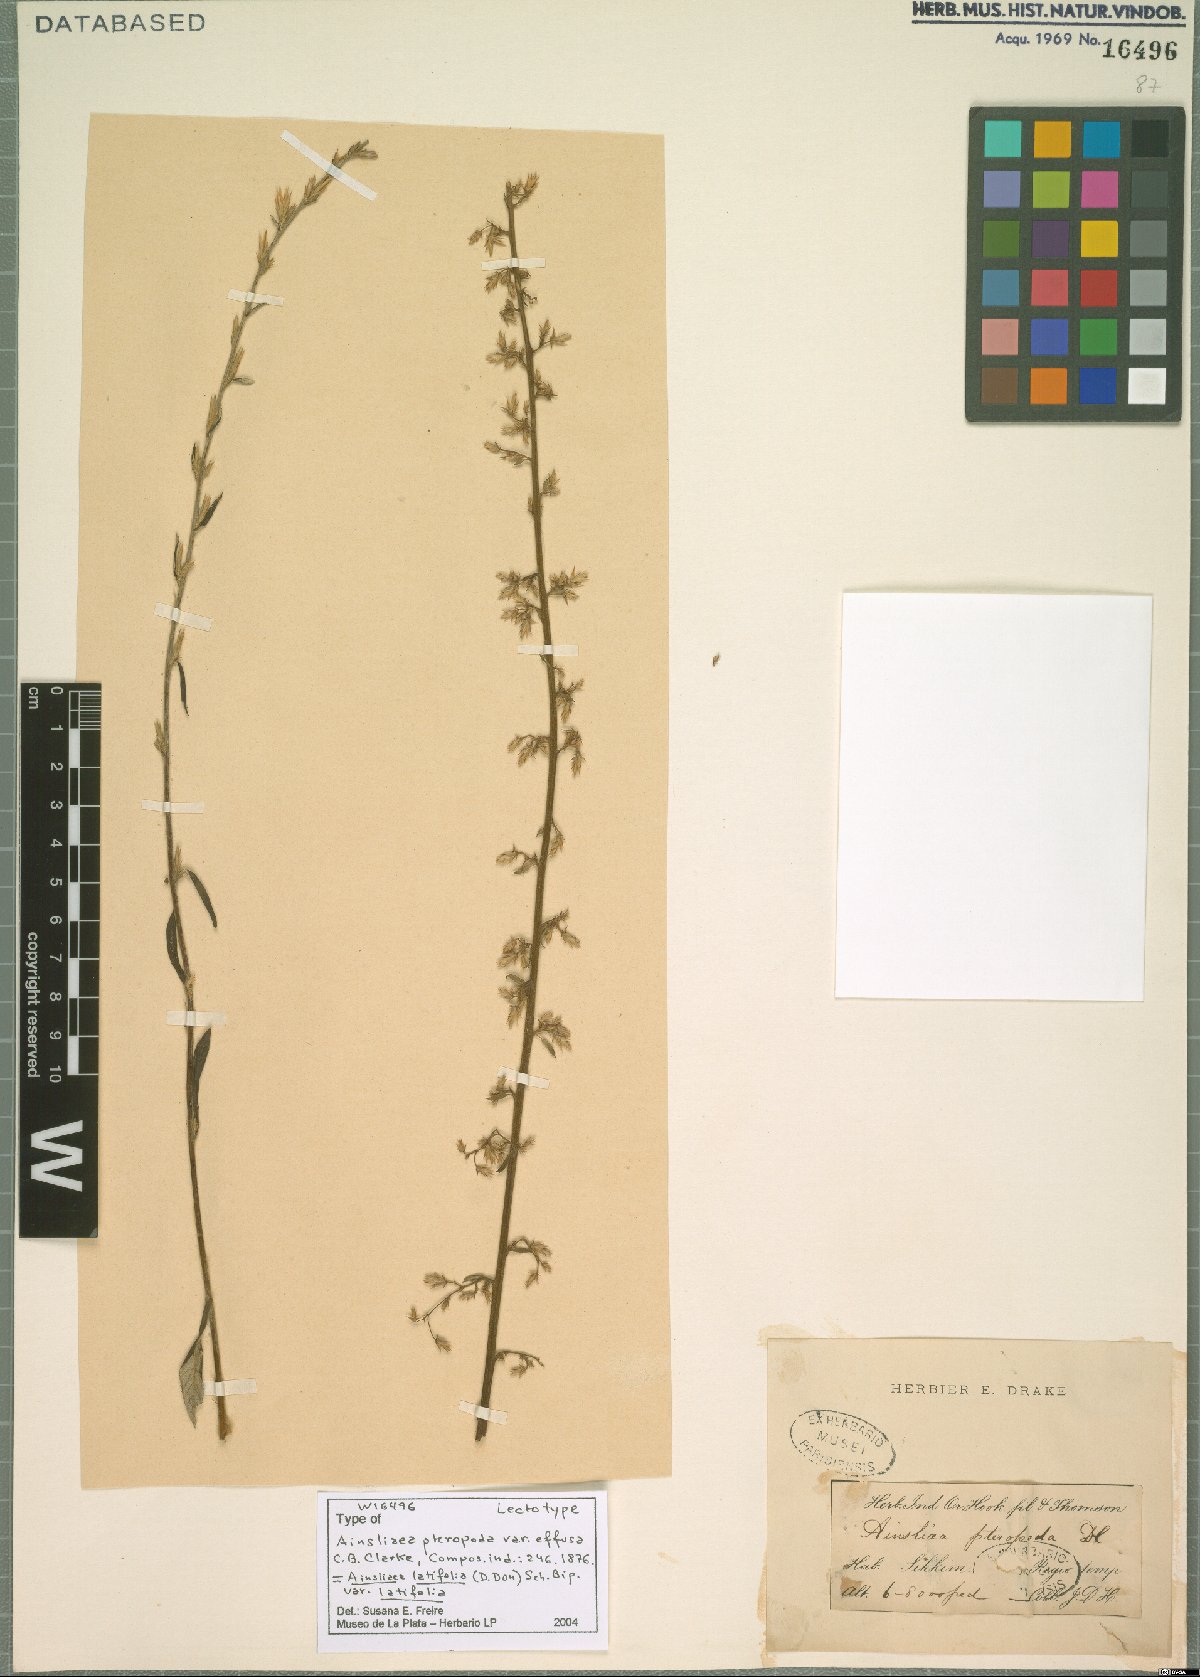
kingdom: Plantae
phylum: Tracheophyta
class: Magnoliopsida
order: Asterales
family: Asteraceae
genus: Ainsliaea
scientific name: Ainsliaea latifolia
